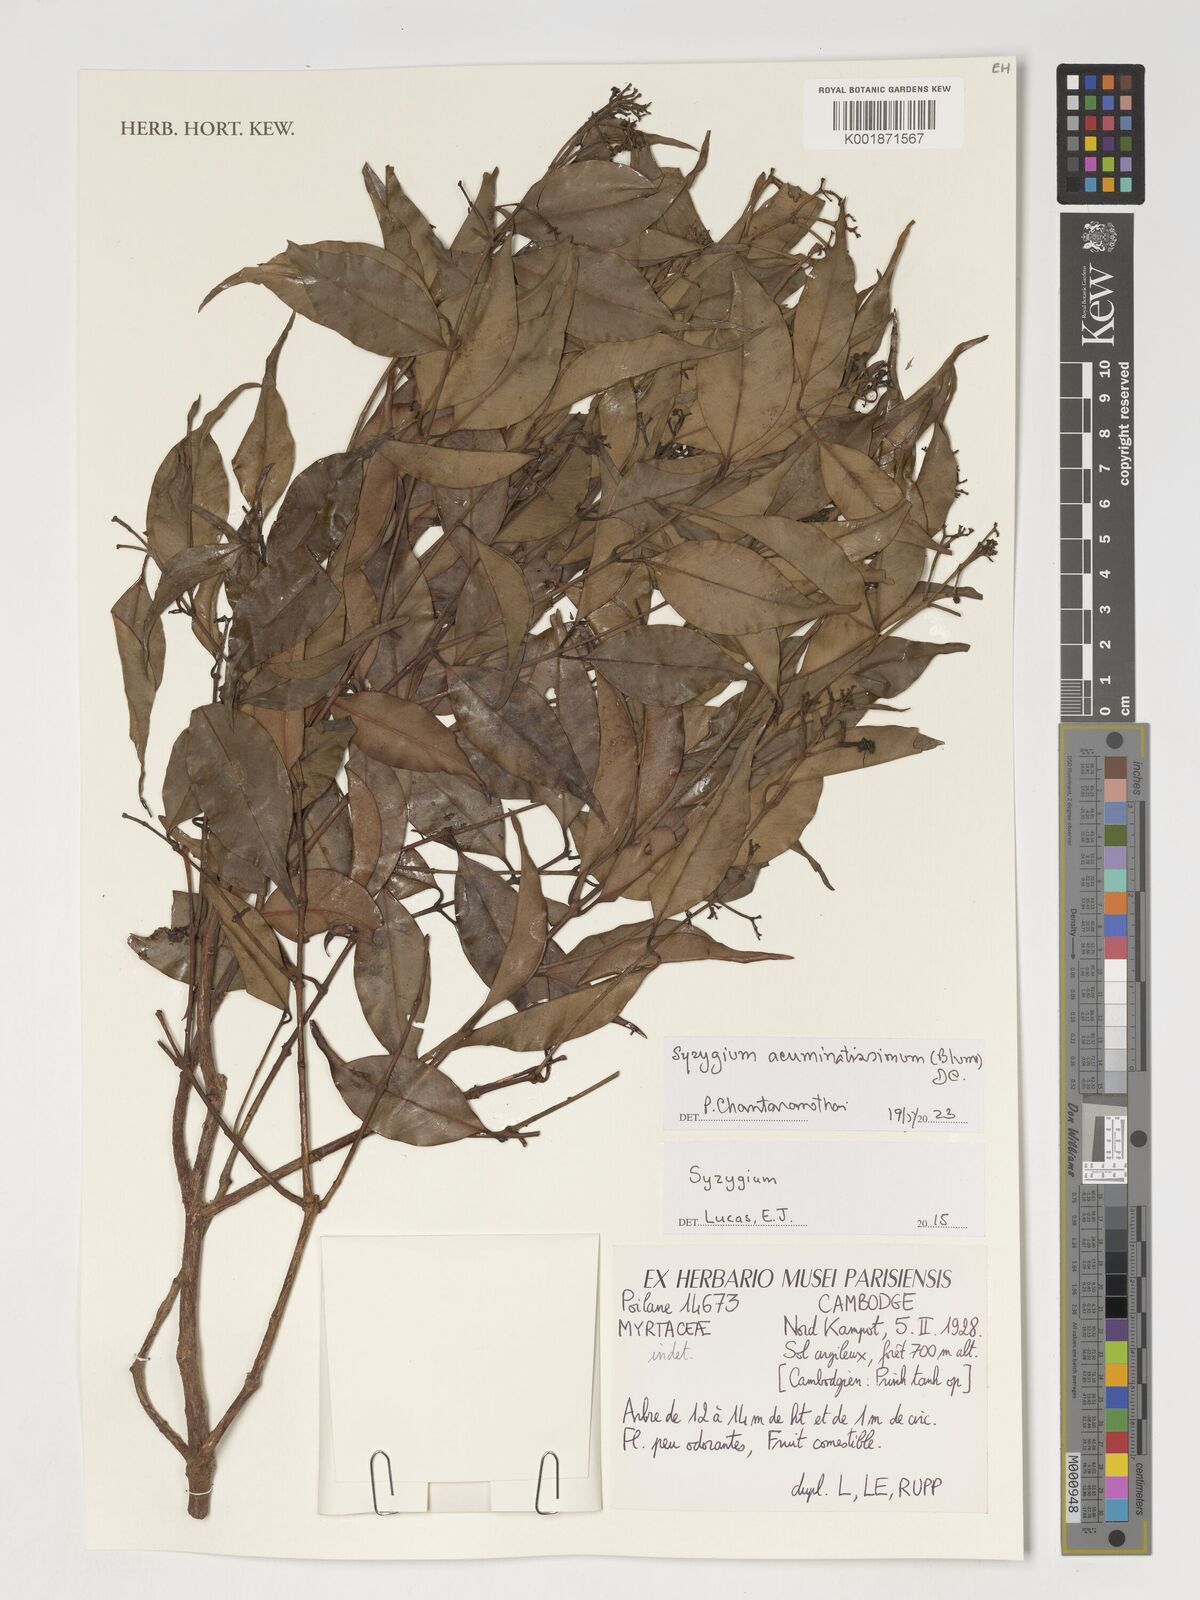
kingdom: Plantae
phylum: Tracheophyta
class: Magnoliopsida
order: Myrtales
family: Myrtaceae
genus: Syzygium
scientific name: Syzygium acuminatissimum
